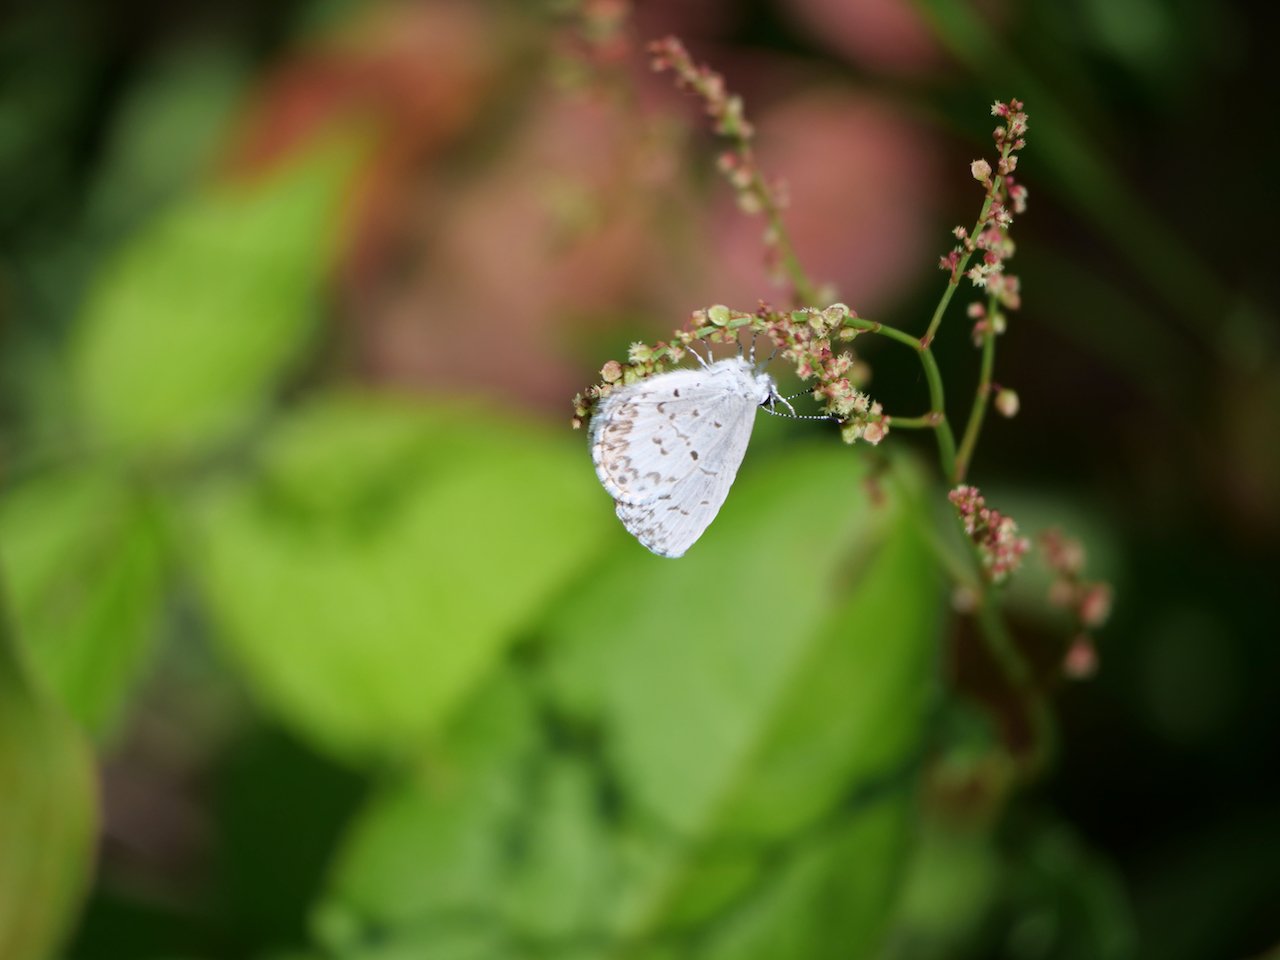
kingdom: Animalia
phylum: Arthropoda
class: Insecta
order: Lepidoptera
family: Lycaenidae
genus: Celastrina
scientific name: Celastrina lucia
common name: Northern Spring Azure
